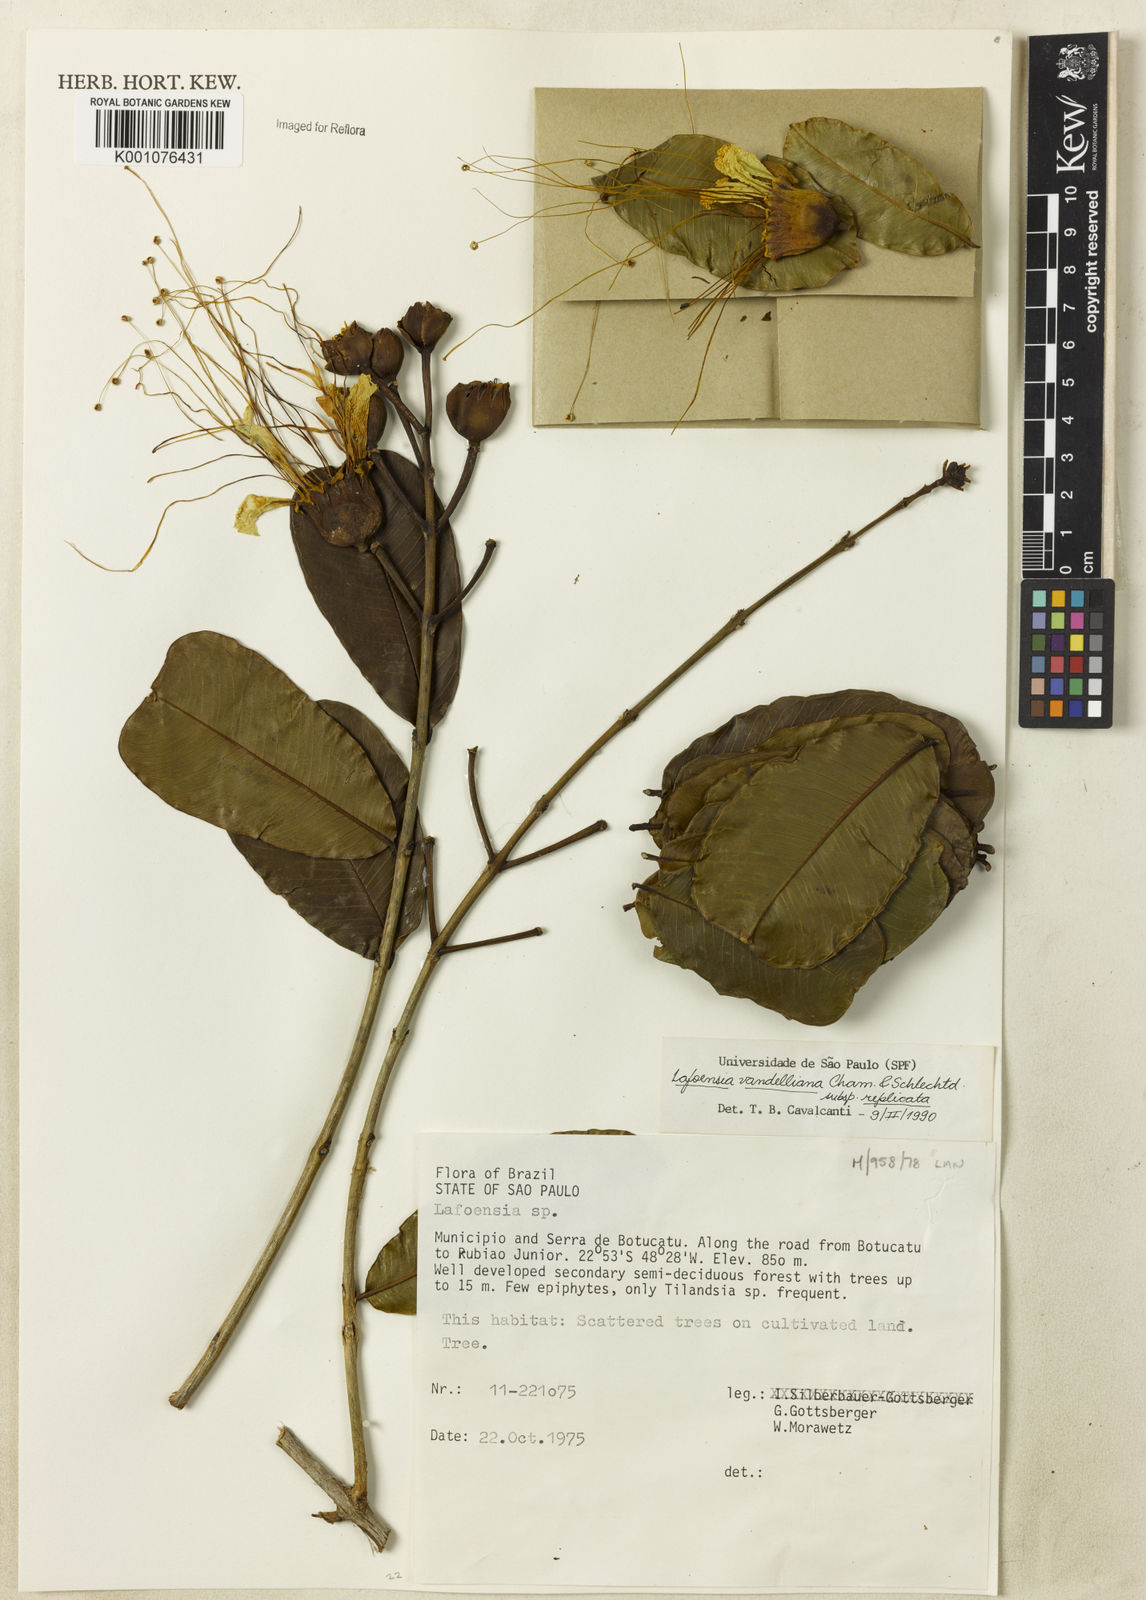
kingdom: Plantae
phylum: Tracheophyta
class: Magnoliopsida
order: Myrtales
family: Lythraceae
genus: Lafoensia
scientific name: Lafoensia vandelliana
